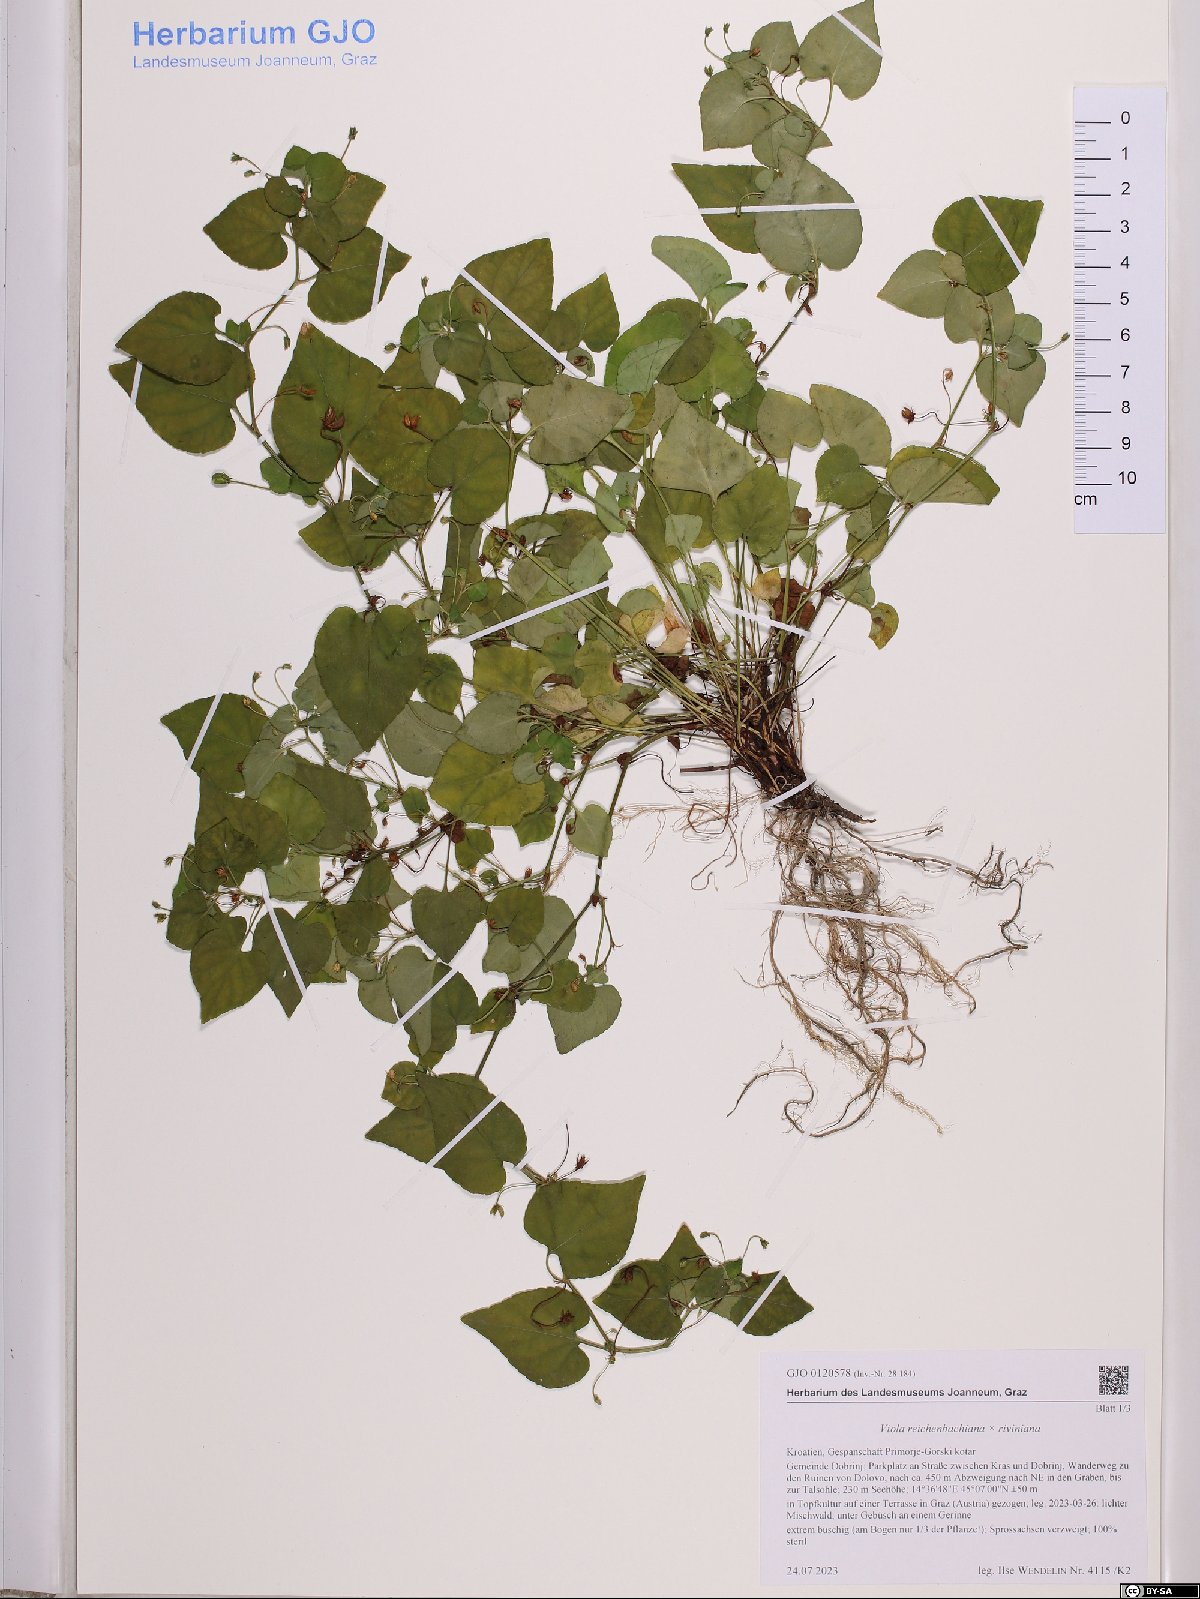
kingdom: Plantae
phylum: Tracheophyta
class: Magnoliopsida
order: Malpighiales
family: Violaceae
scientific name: Violaceae
